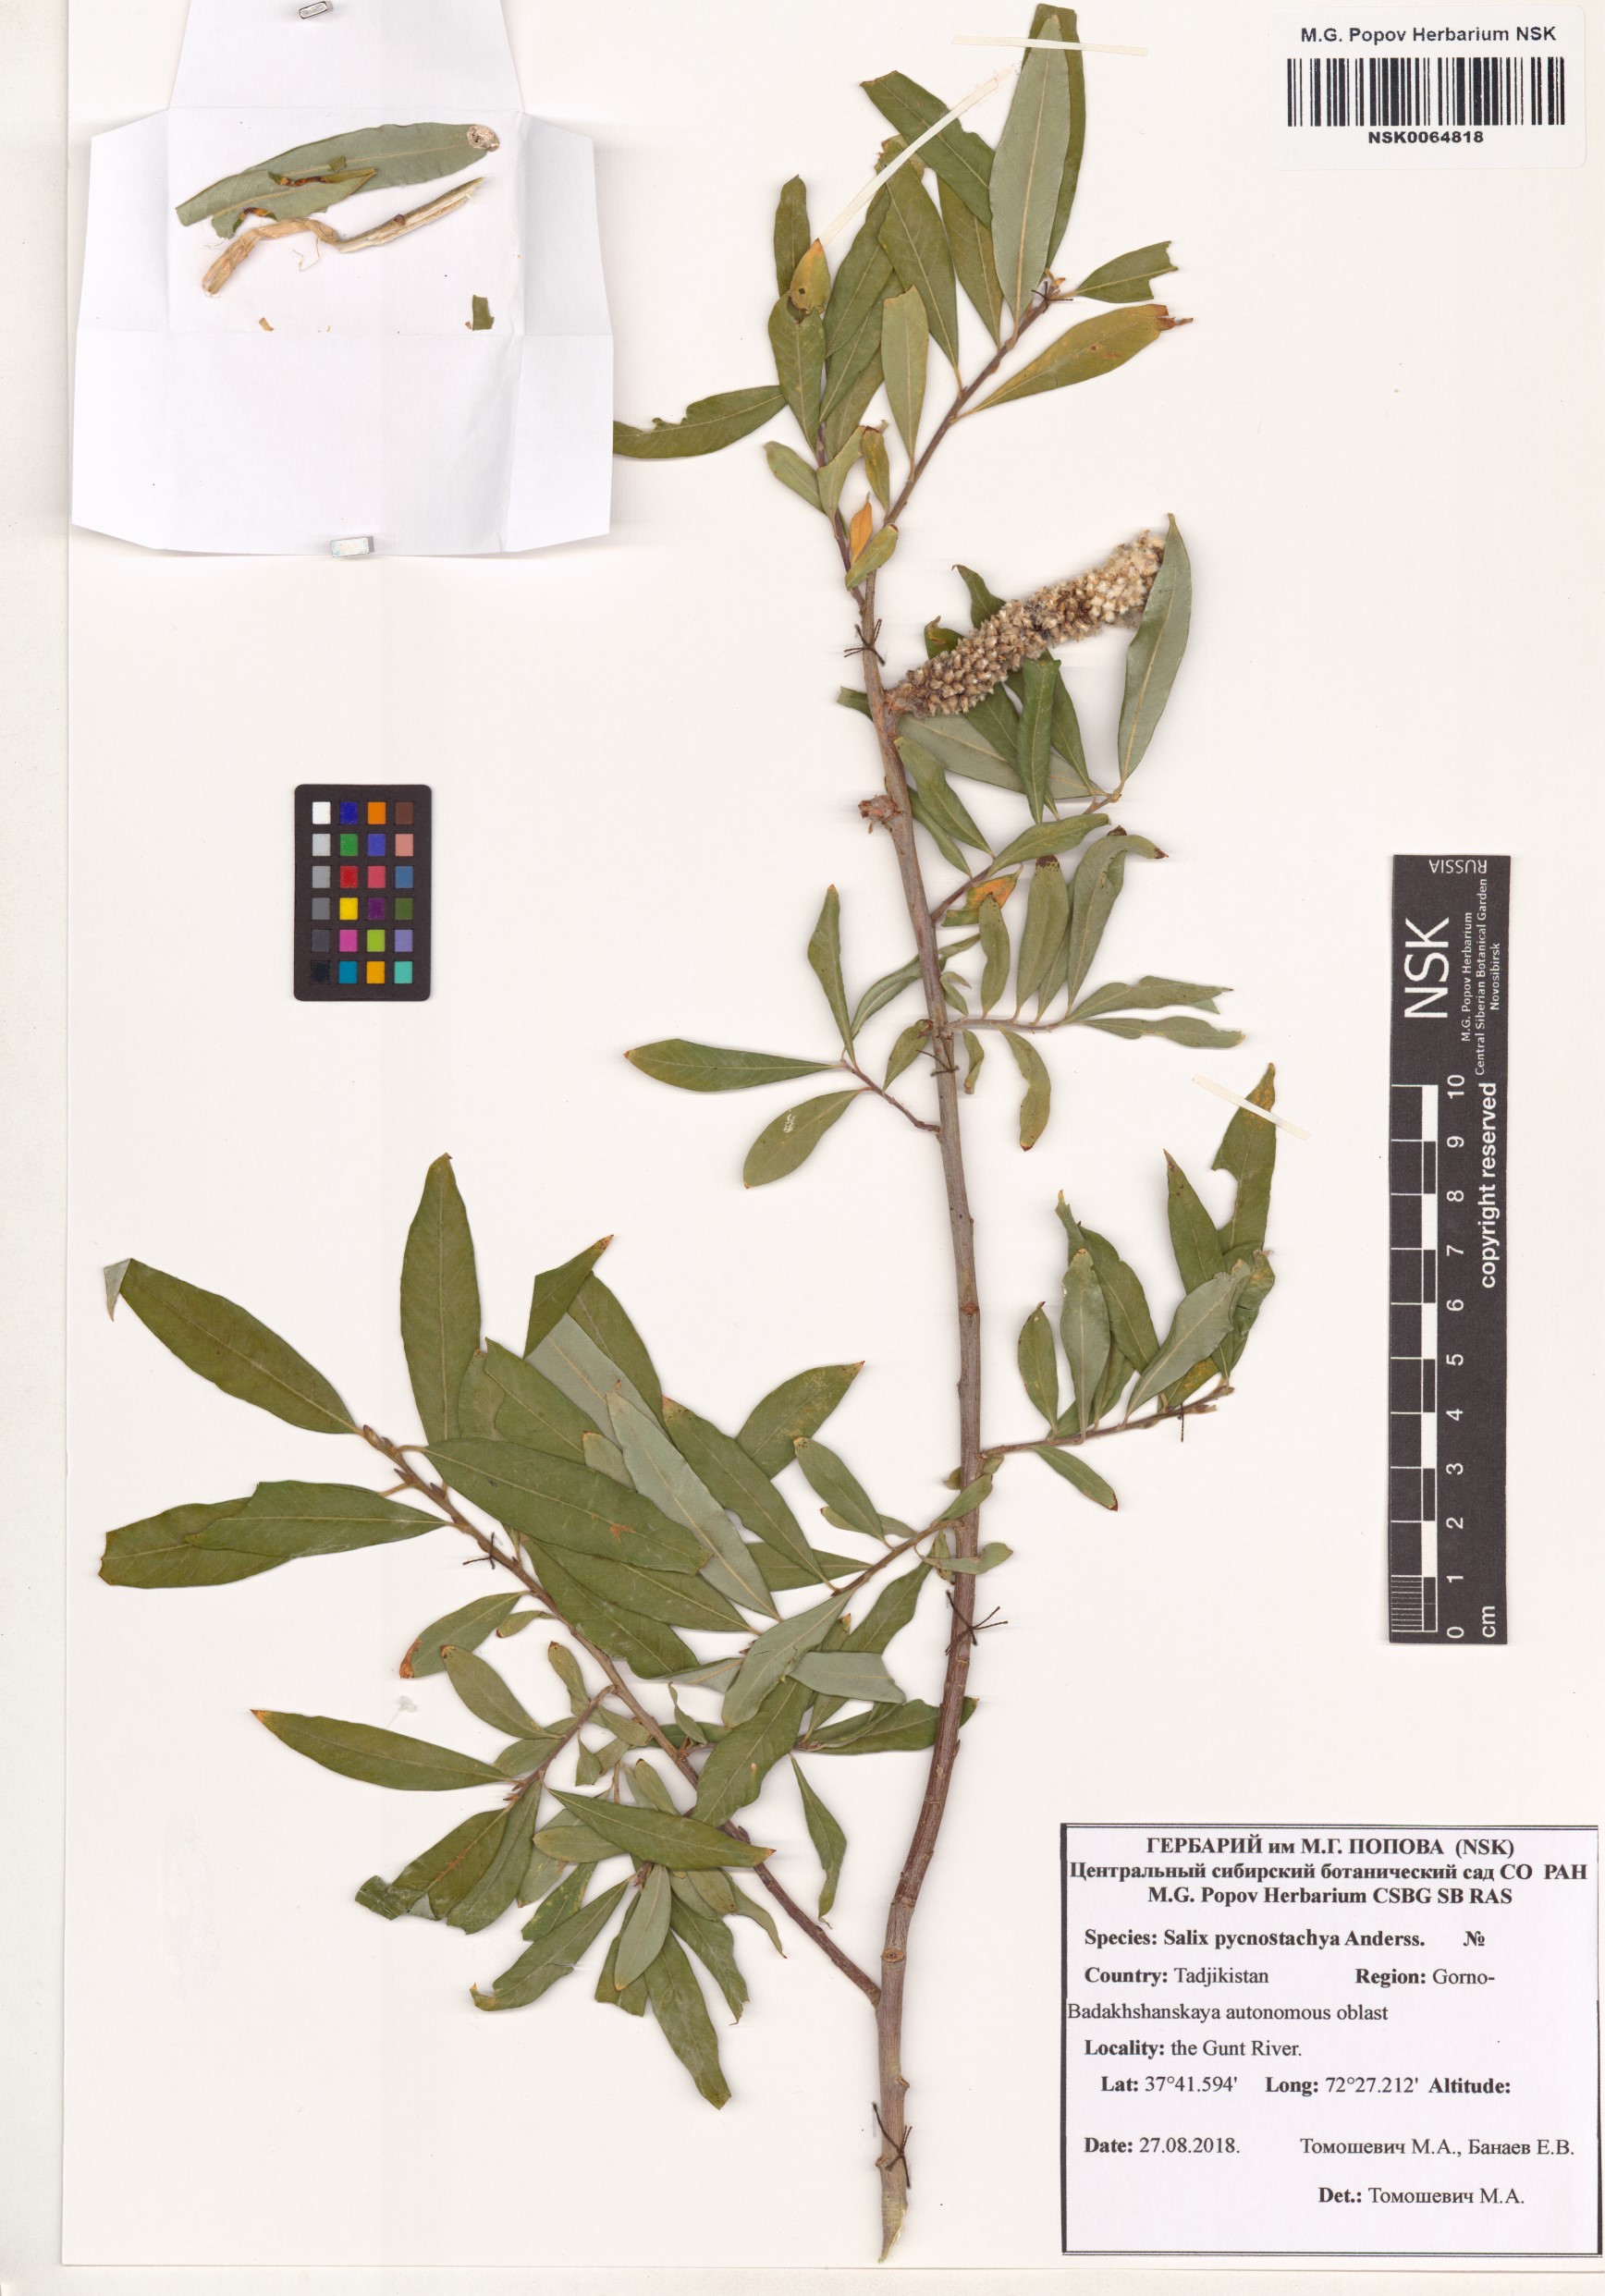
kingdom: Plantae
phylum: Tracheophyta
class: Magnoliopsida
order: Malpighiales
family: Salicaceae
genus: Salix
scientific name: Salix pycnostachya
